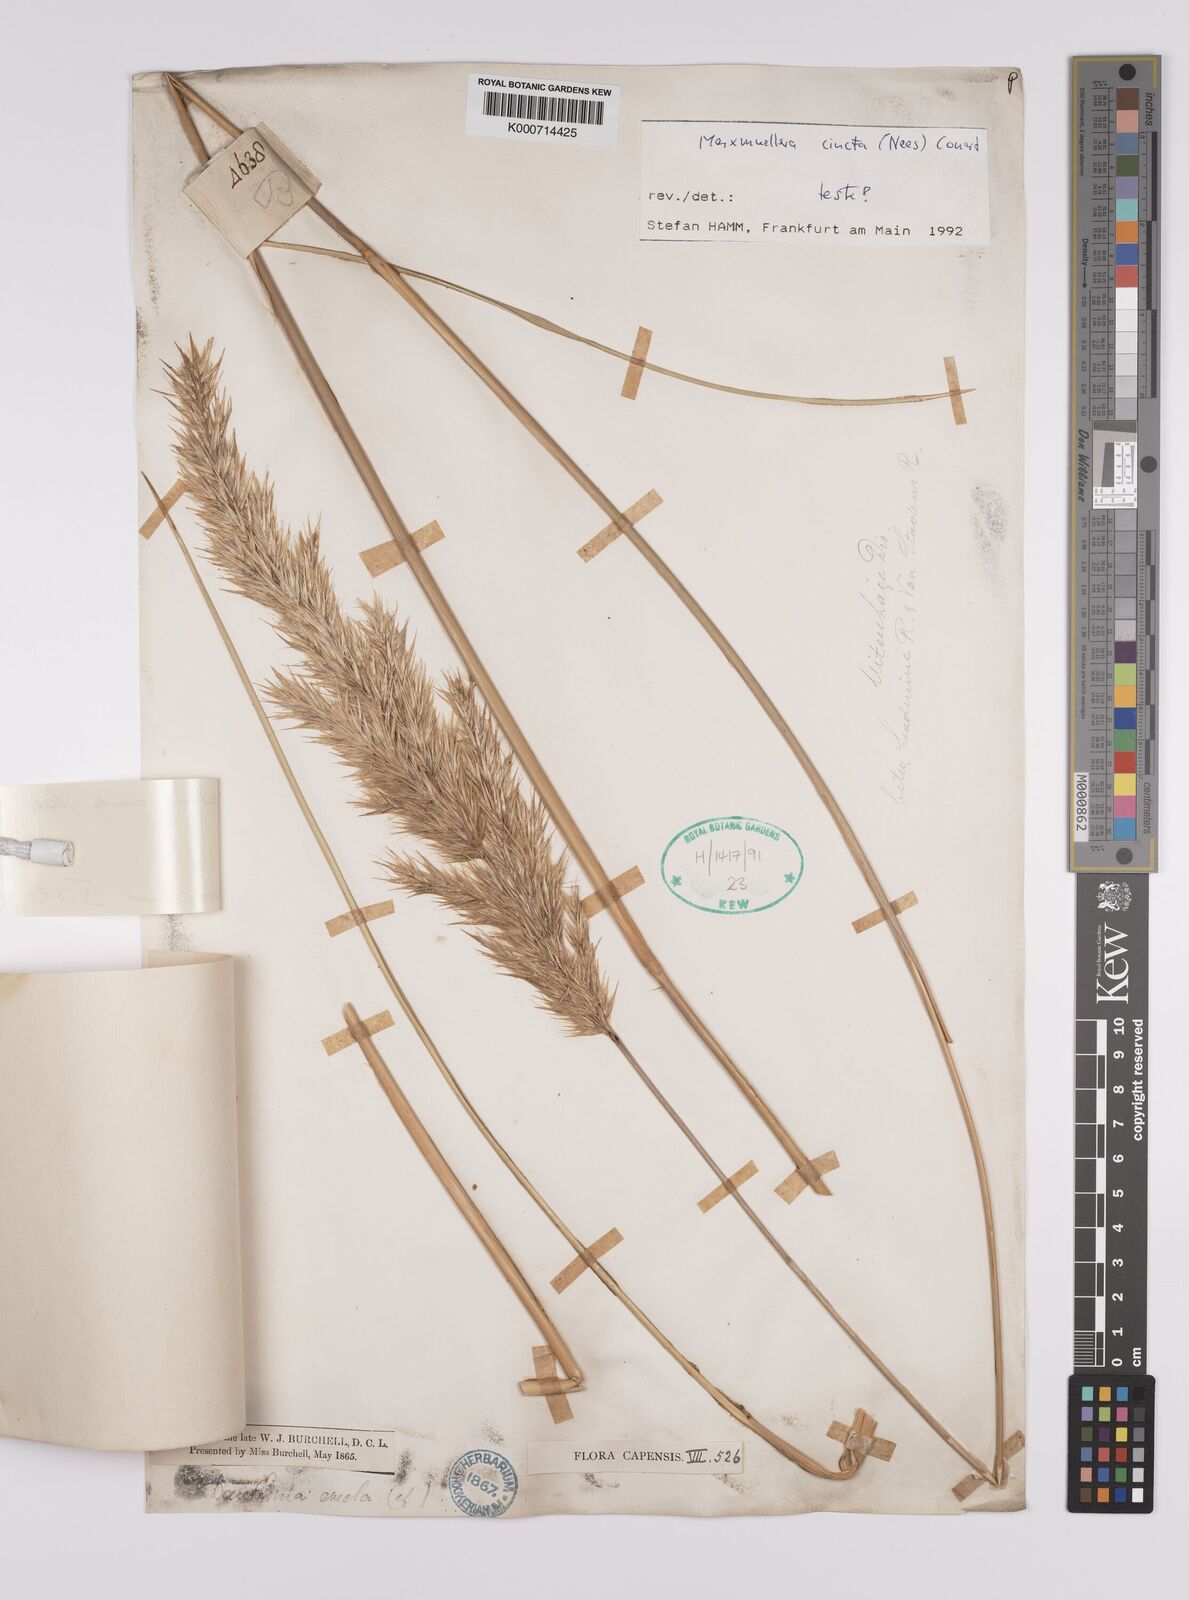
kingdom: Plantae
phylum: Tracheophyta
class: Liliopsida
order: Poales
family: Poaceae
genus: Rytidosperma
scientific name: Rytidosperma
